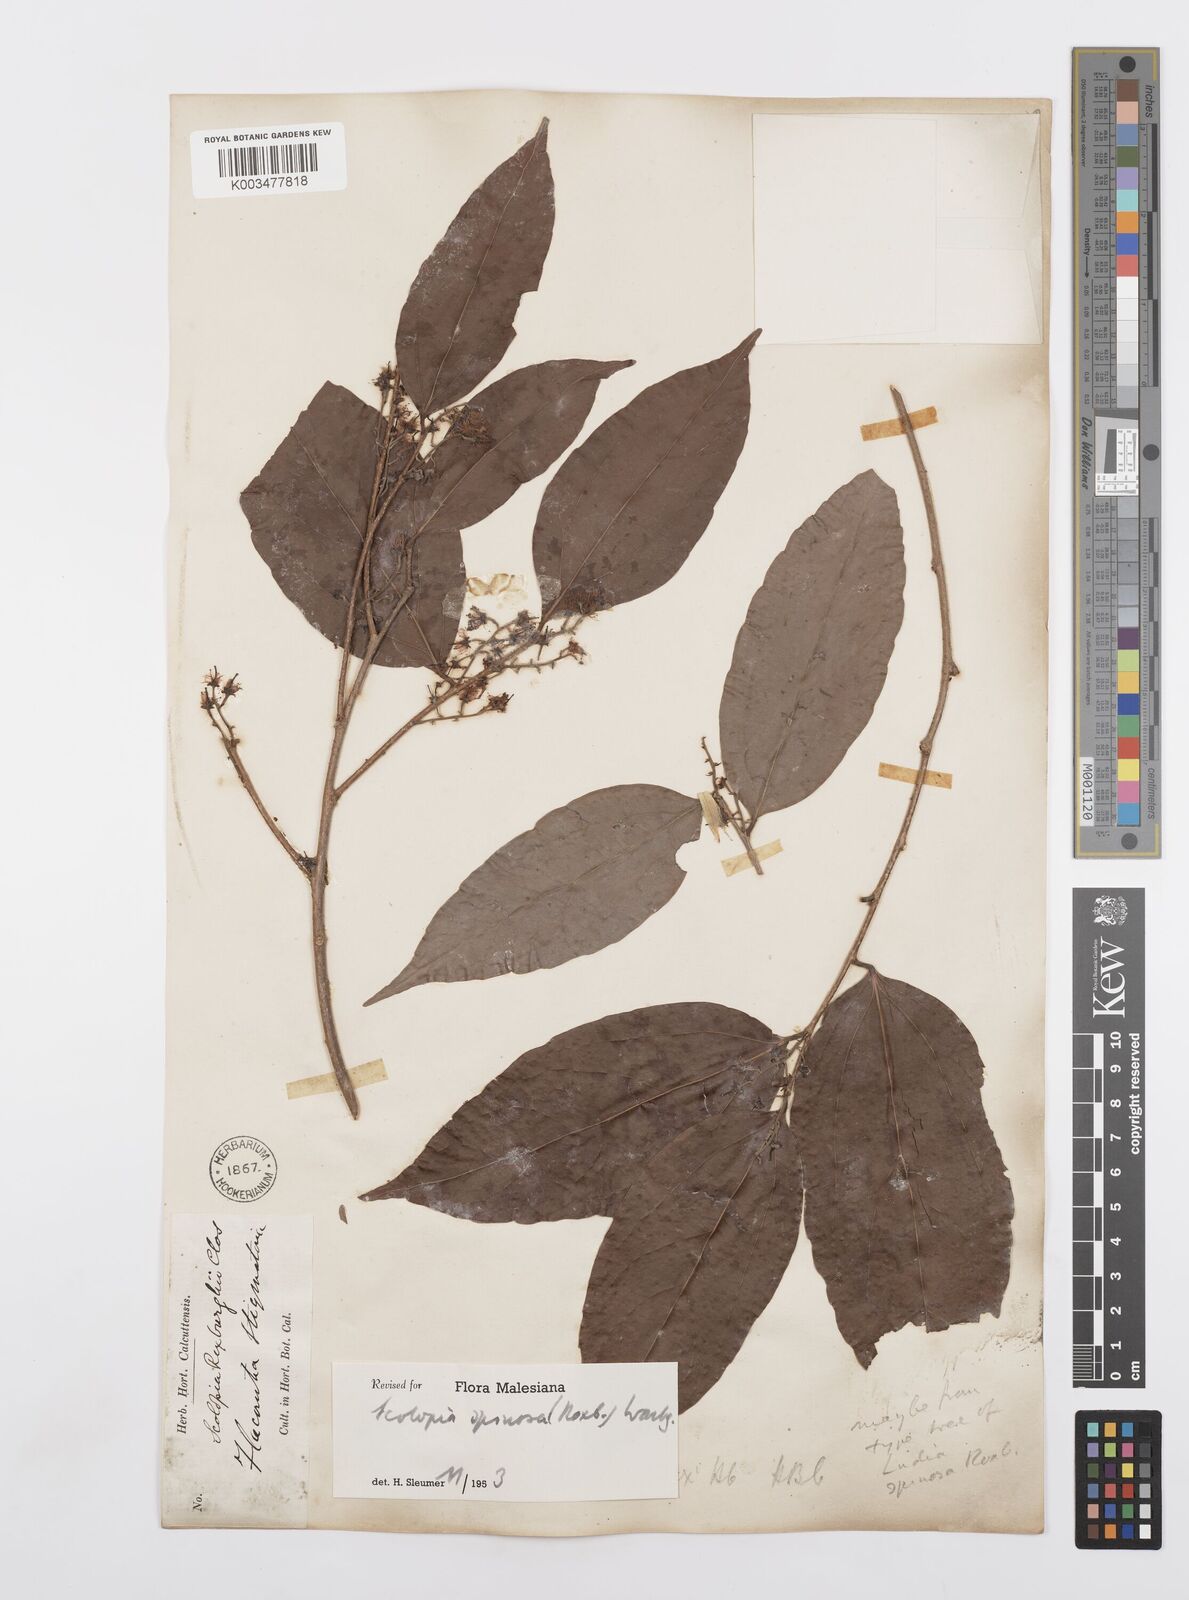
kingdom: Plantae
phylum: Tracheophyta
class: Magnoliopsida
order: Malpighiales
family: Salicaceae
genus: Scolopia
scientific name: Scolopia spinosa
